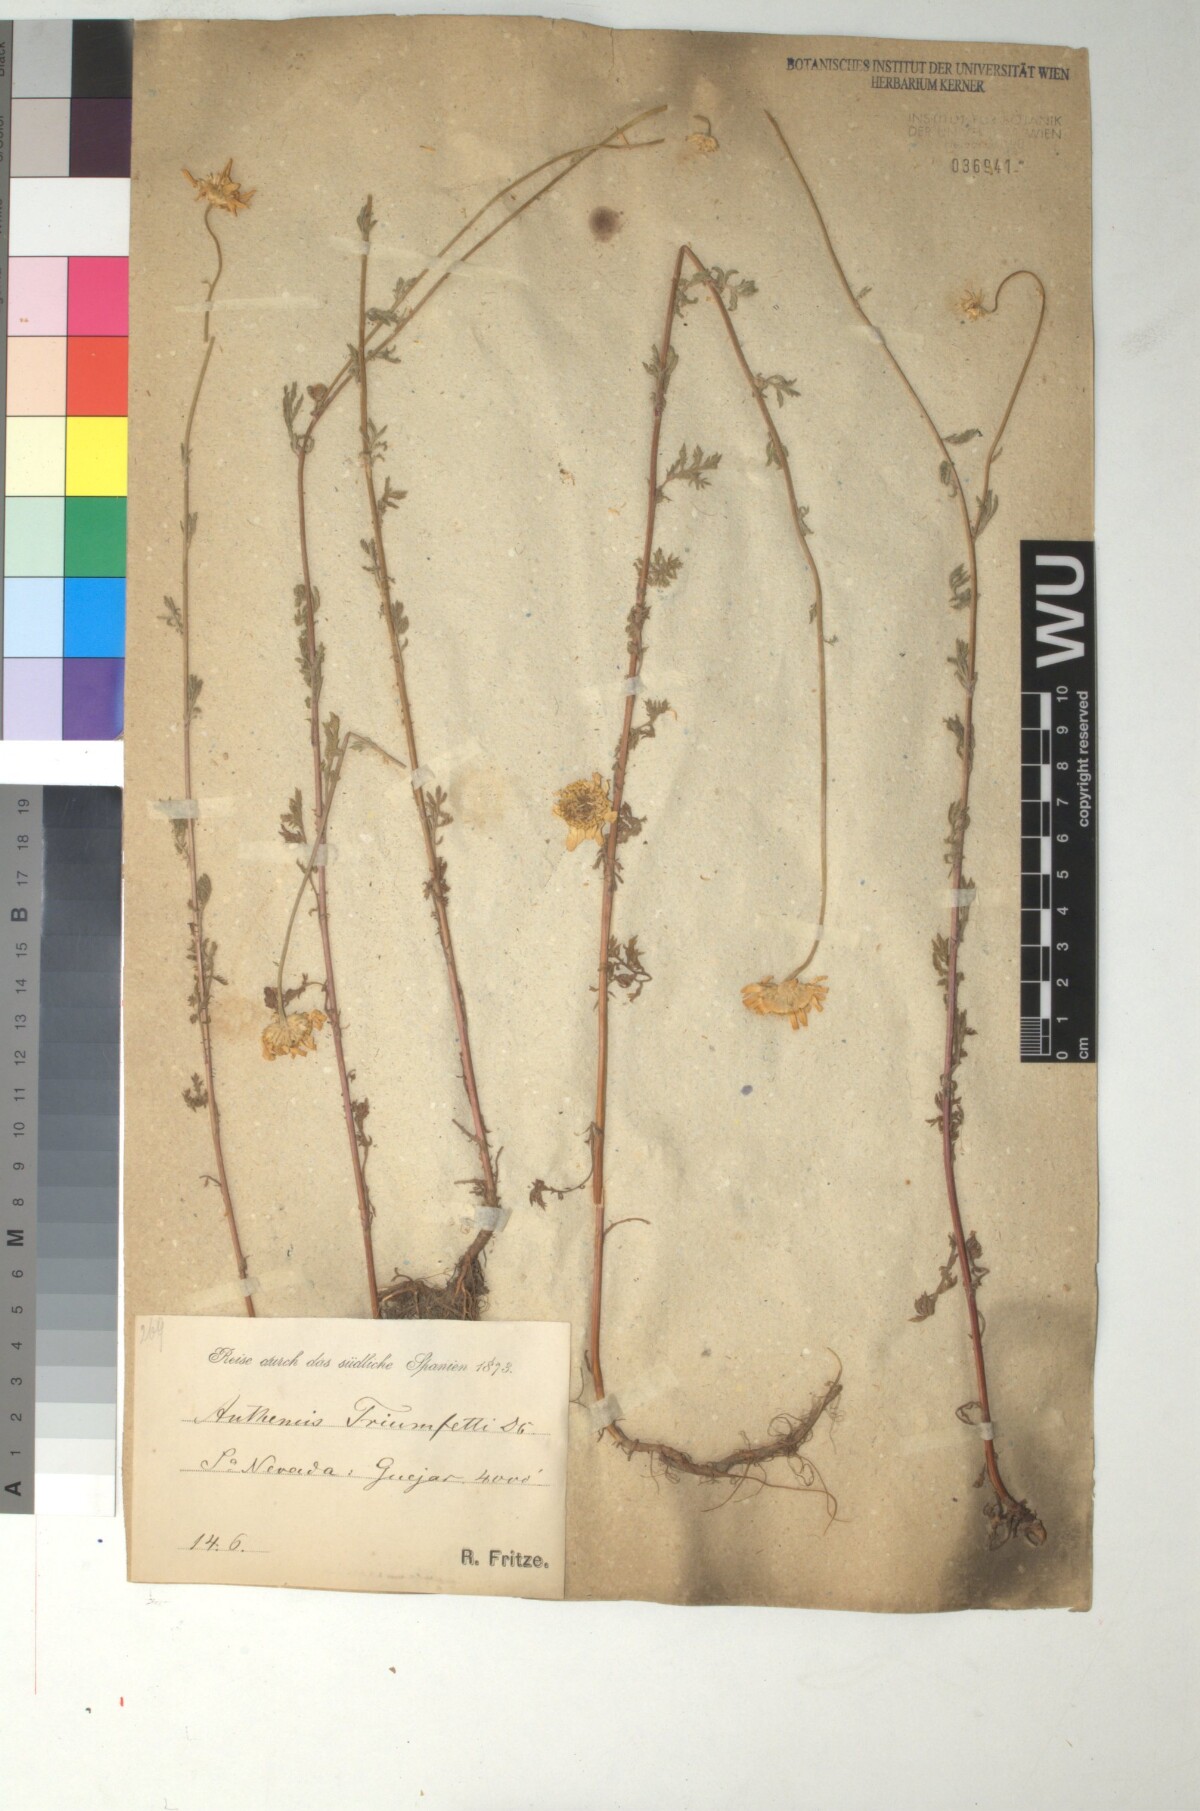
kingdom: Plantae
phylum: Tracheophyta
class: Magnoliopsida
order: Asterales
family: Asteraceae
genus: Cota
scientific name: Cota triumfetti
